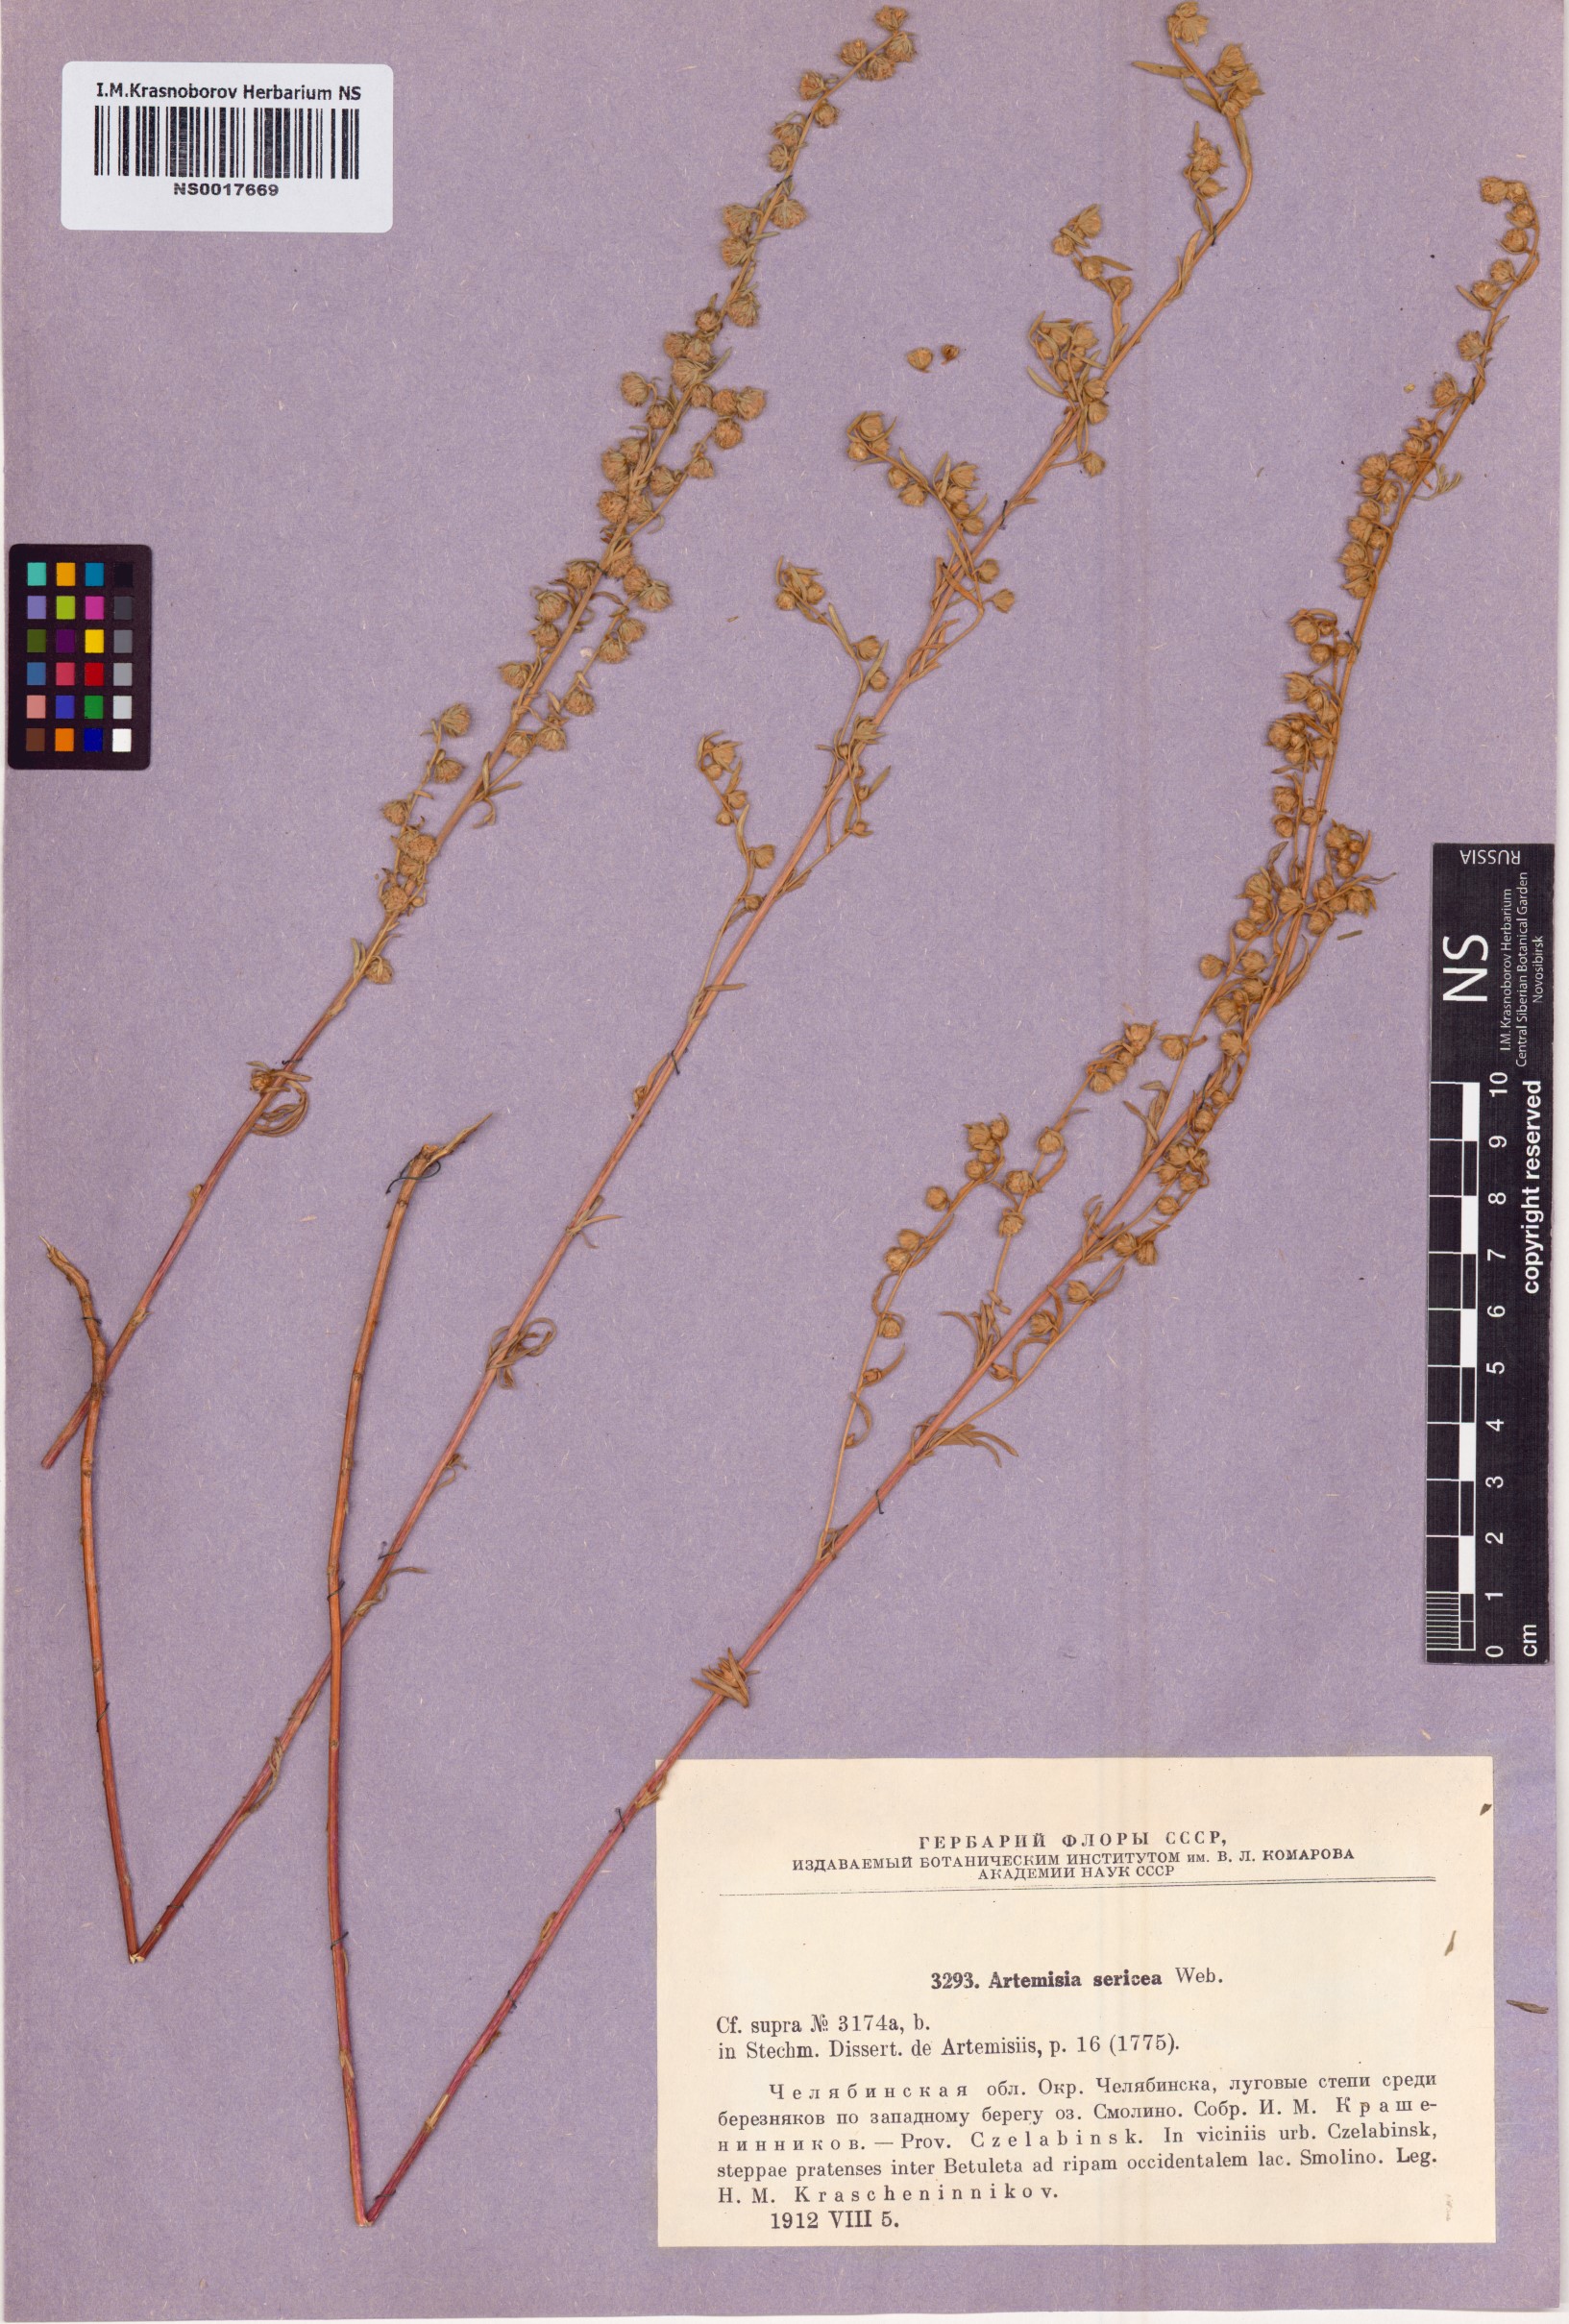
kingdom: Plantae
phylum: Tracheophyta
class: Magnoliopsida
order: Asterales
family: Asteraceae
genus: Artemisia
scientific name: Artemisia sericea
